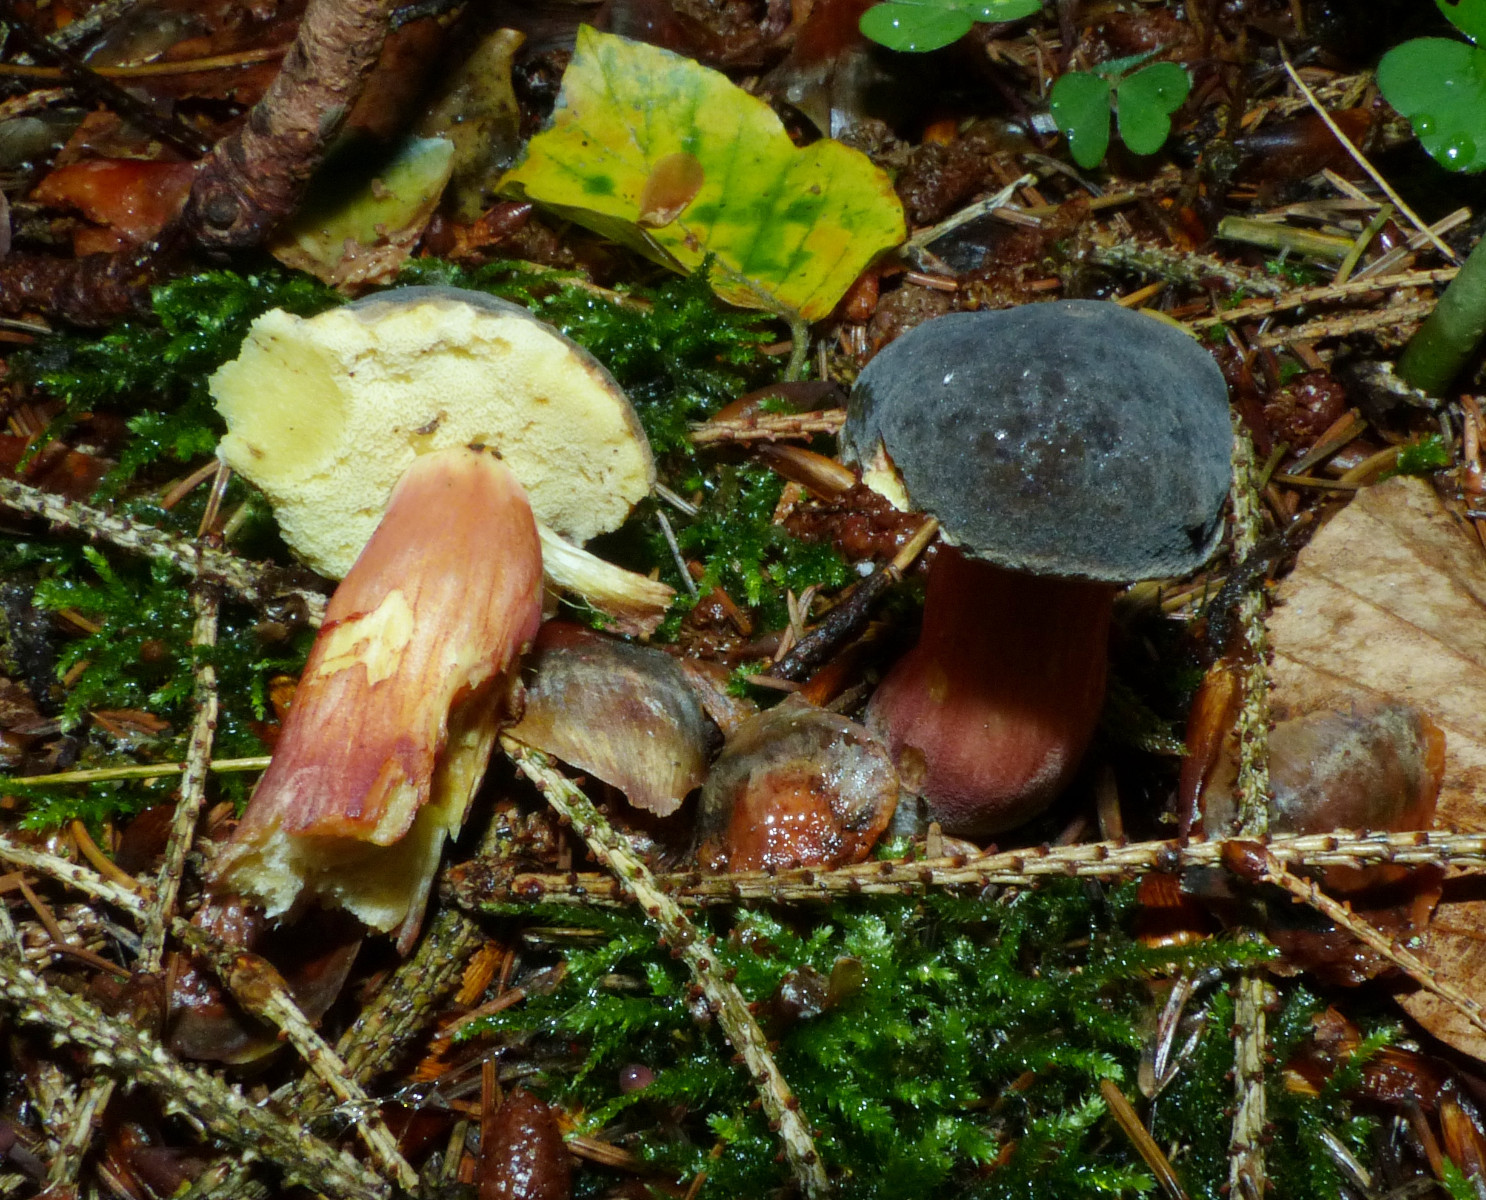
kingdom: Fungi
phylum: Basidiomycota
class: Agaricomycetes
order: Boletales
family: Boletaceae
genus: Xerocomellus
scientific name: Xerocomellus chrysenteron
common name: rødsprukken rørhat
